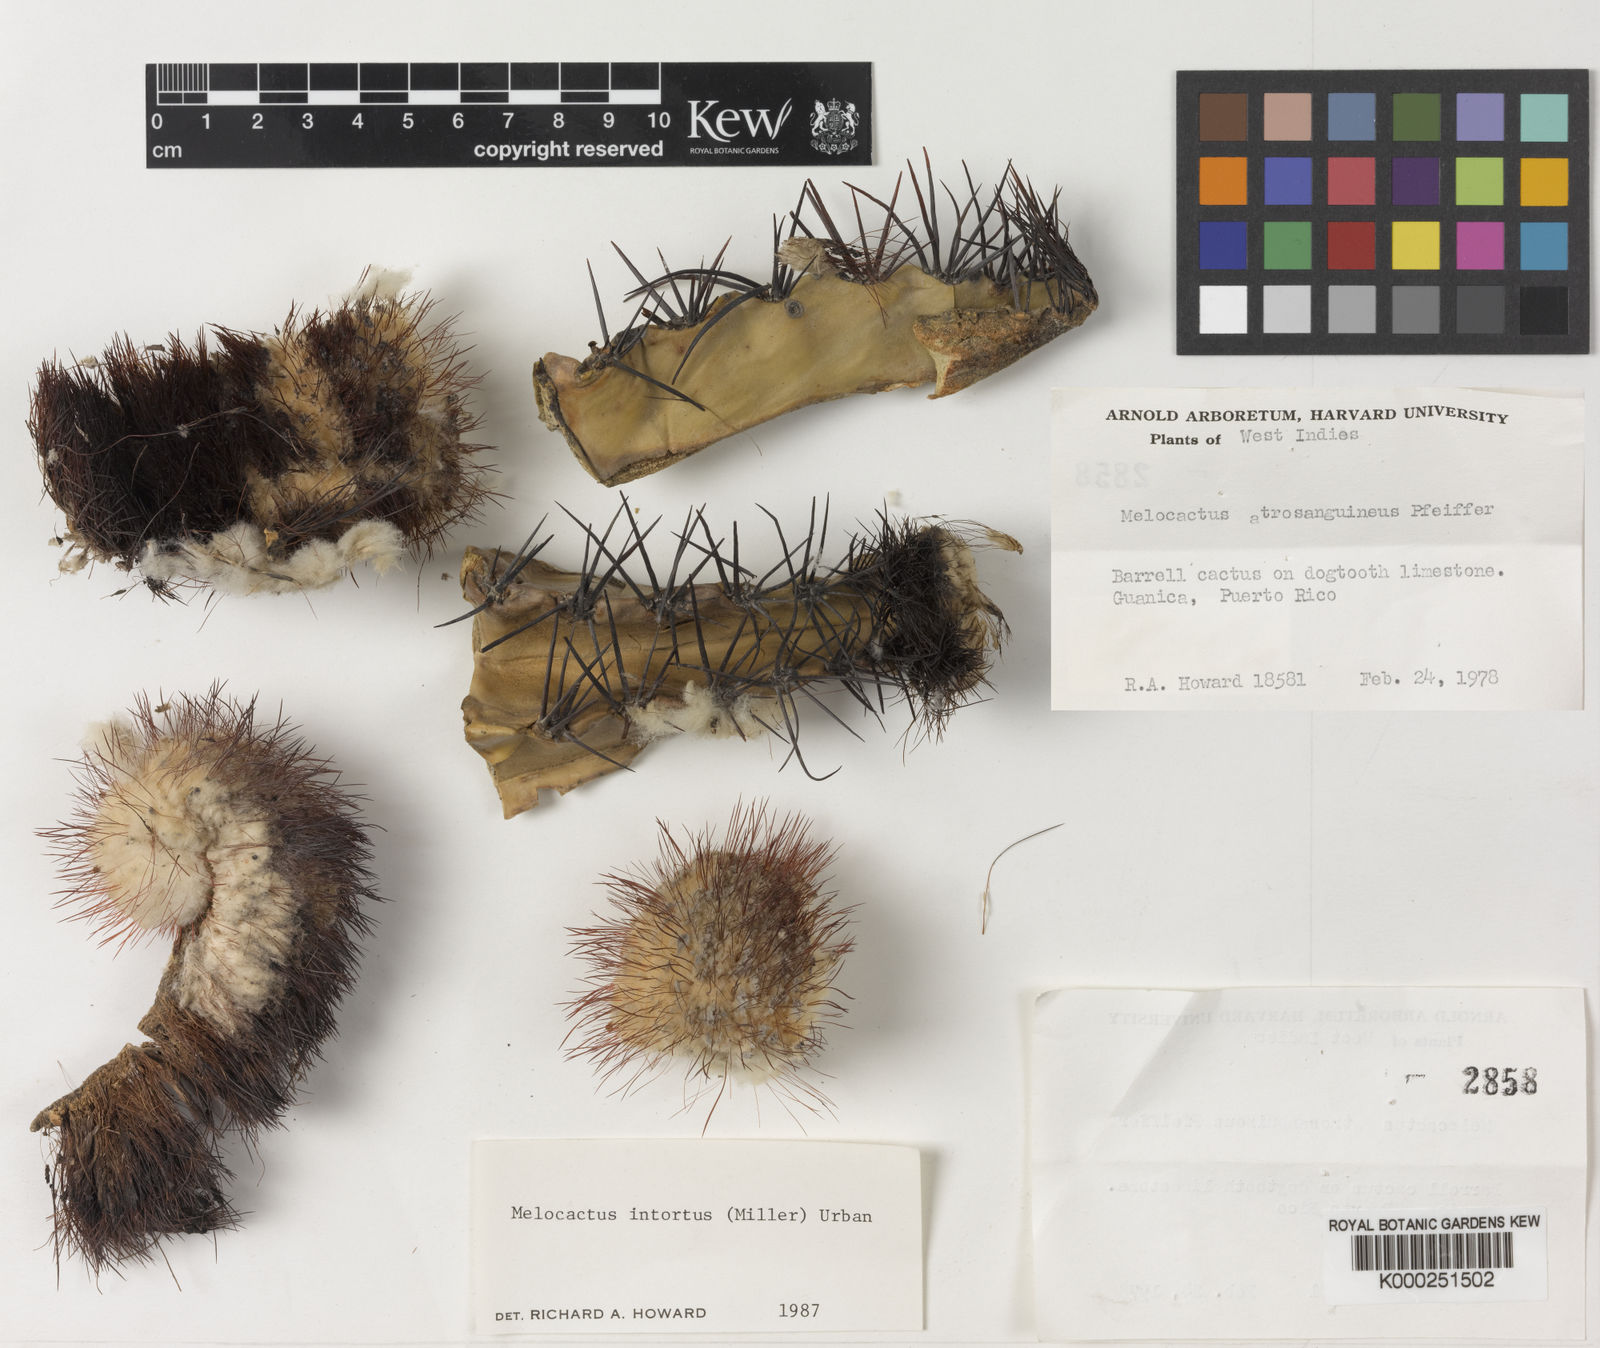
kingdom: Plantae
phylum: Tracheophyta
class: Magnoliopsida
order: Caryophyllales
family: Cactaceae
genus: Melocactus
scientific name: Melocactus
